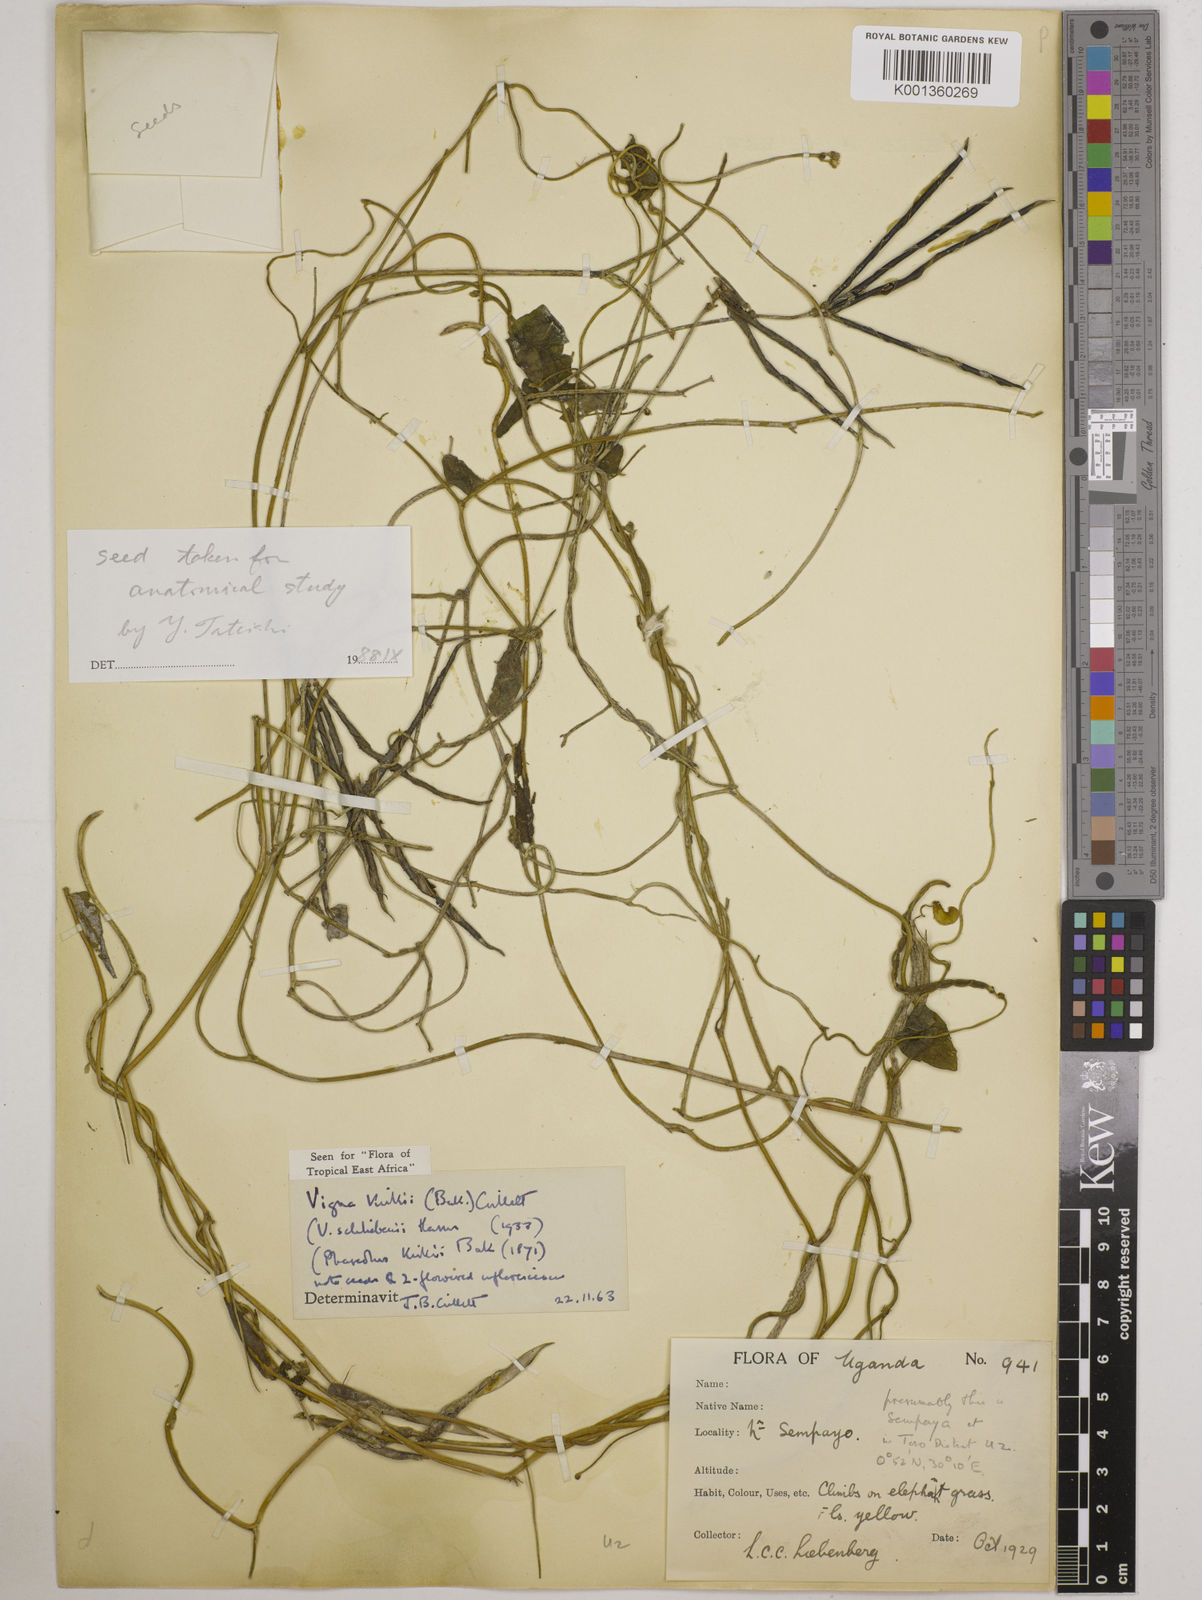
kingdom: Plantae
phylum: Tracheophyta
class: Magnoliopsida
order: Fabales
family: Fabaceae
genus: Vigna
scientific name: Vigna kirkii
